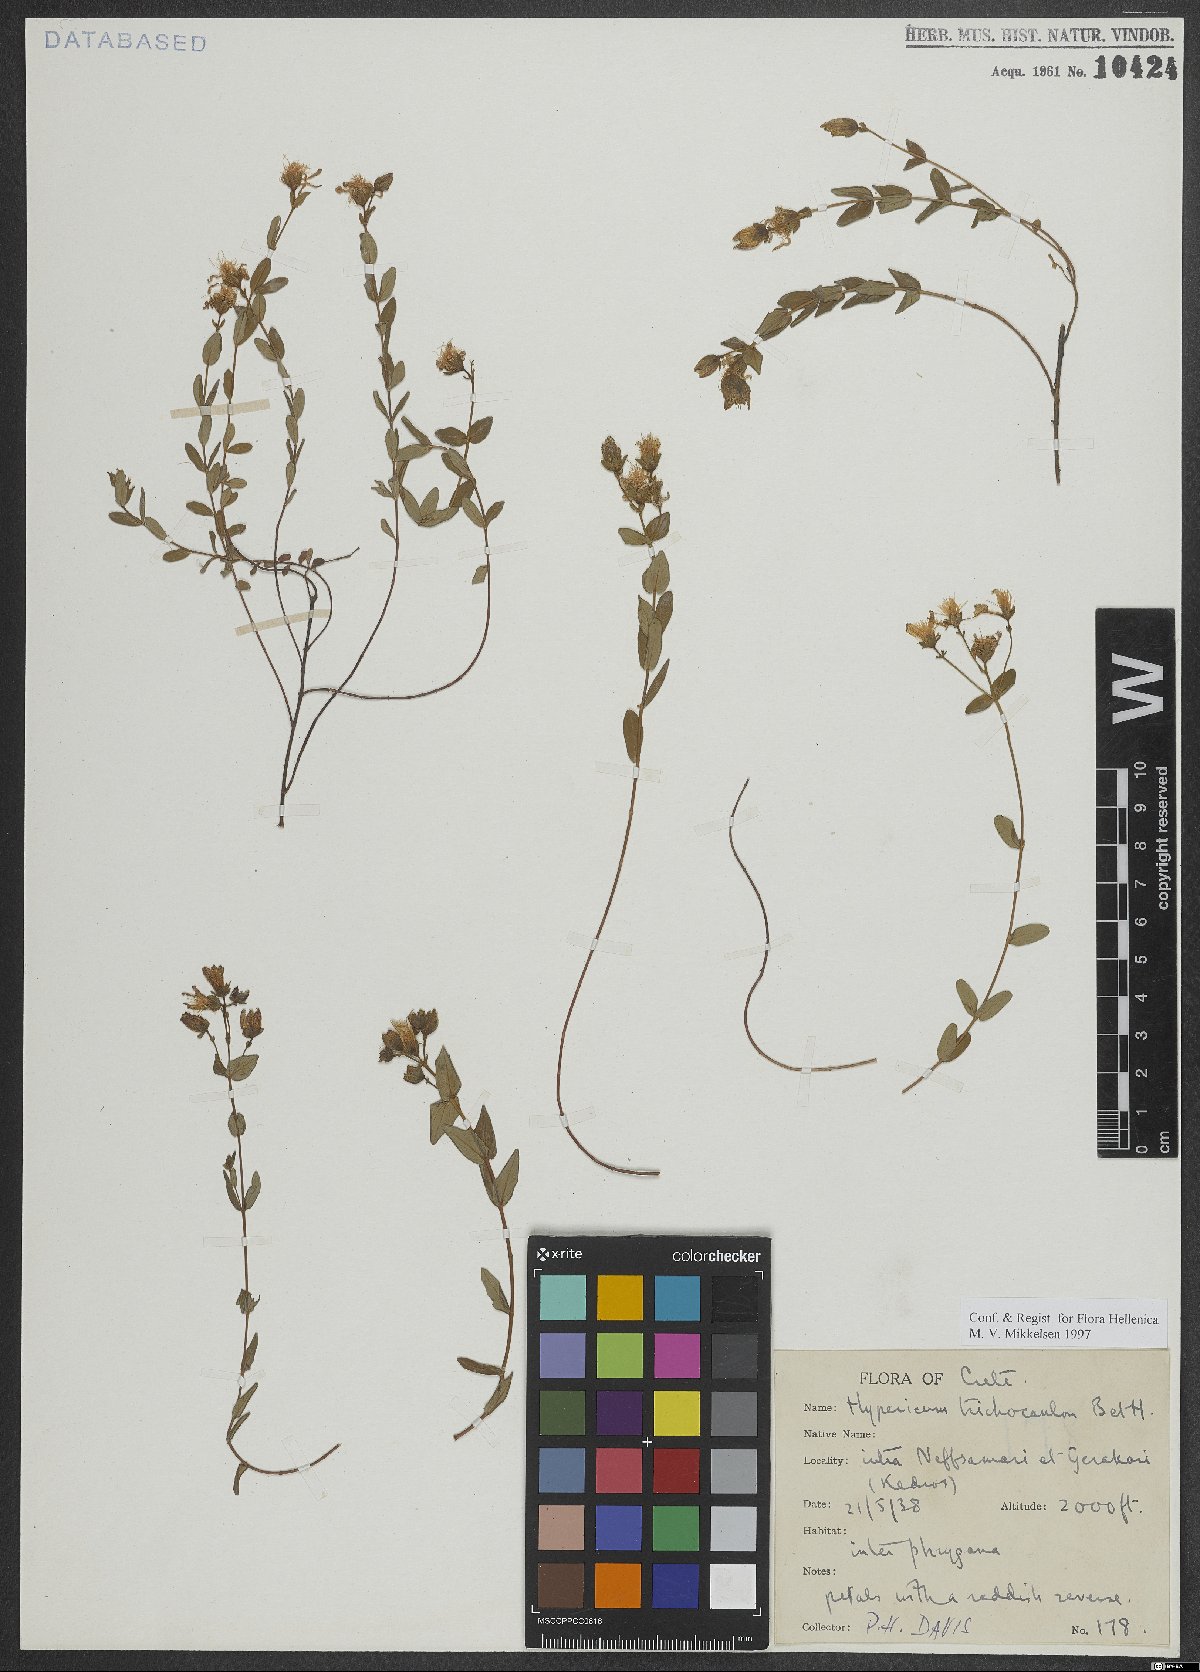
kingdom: Plantae
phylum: Tracheophyta
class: Magnoliopsida
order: Malpighiales
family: Hypericaceae
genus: Hypericum
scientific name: Hypericum trichocaulon
